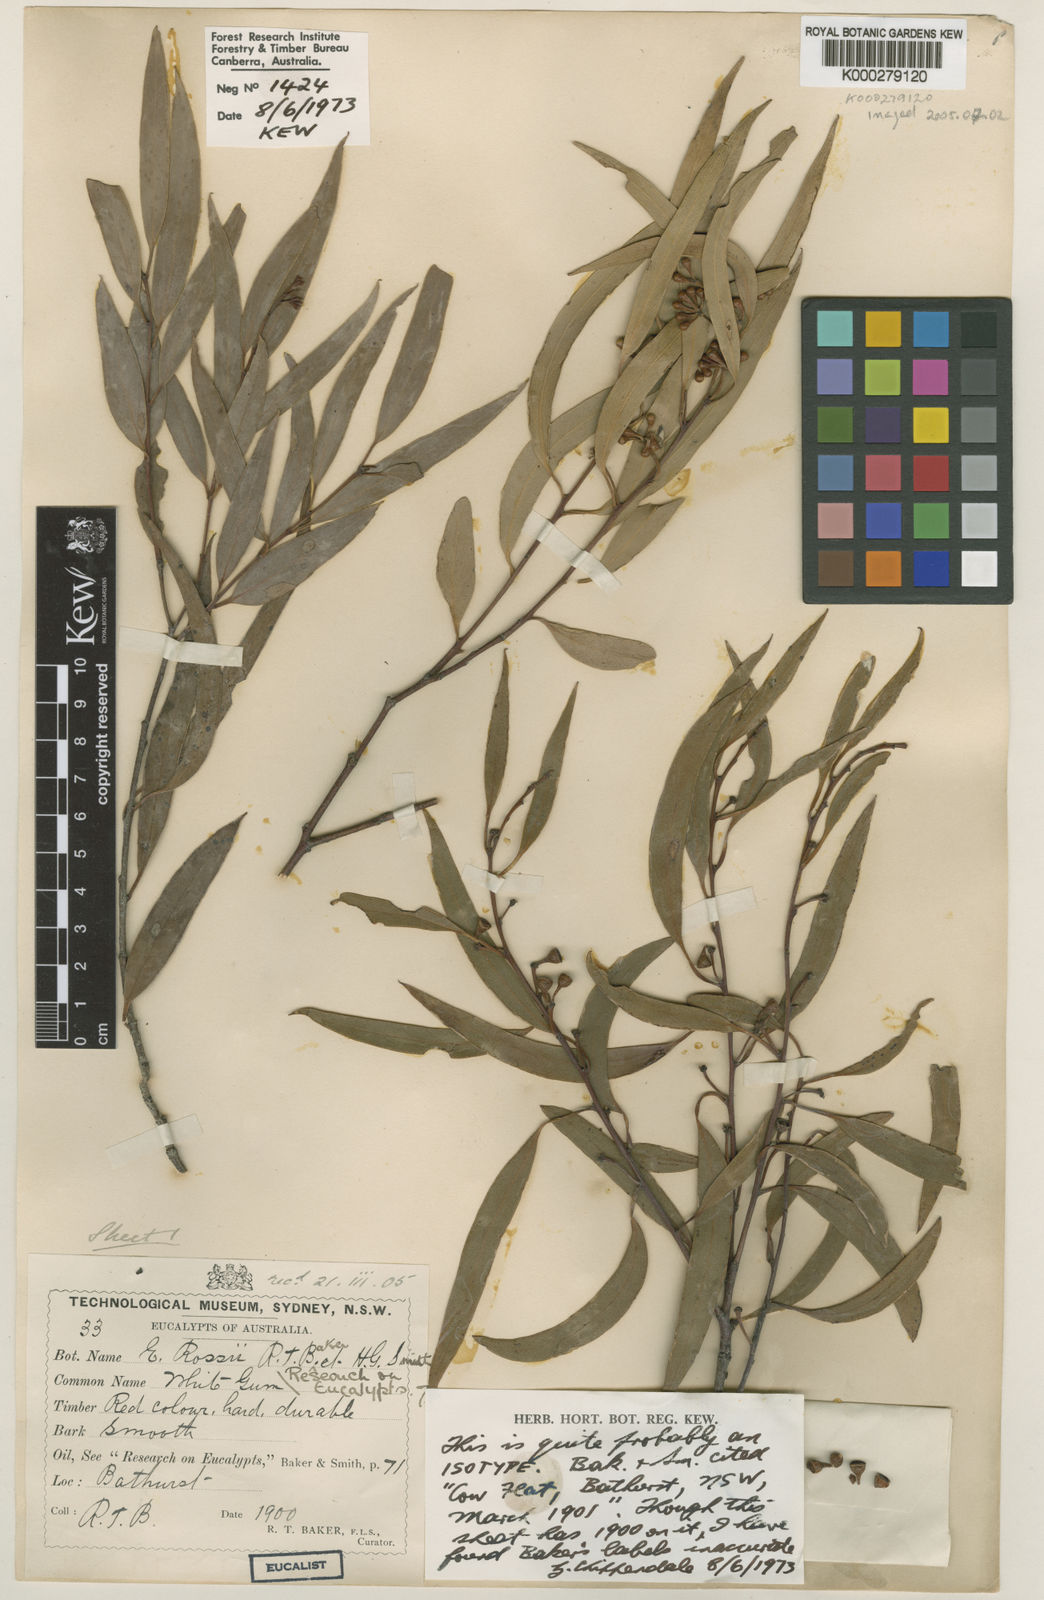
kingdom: Plantae
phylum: Tracheophyta
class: Magnoliopsida
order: Myrtales
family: Myrtaceae
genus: Eucalyptus
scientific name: Eucalyptus racemosa
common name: Scribbly gum
